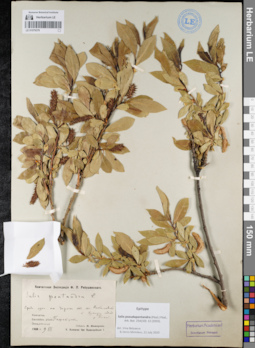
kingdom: Plantae
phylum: Tracheophyta
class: Magnoliopsida
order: Malpighiales
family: Salicaceae
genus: Salix
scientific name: Salix pseudopentandra
